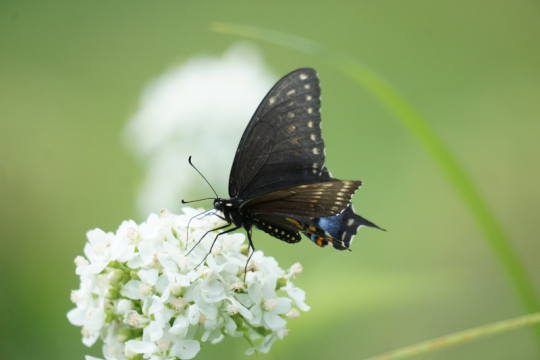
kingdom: Animalia
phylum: Arthropoda
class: Insecta
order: Lepidoptera
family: Papilionidae
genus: Papilio
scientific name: Papilio polyxenes
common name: Black Swallowtail
